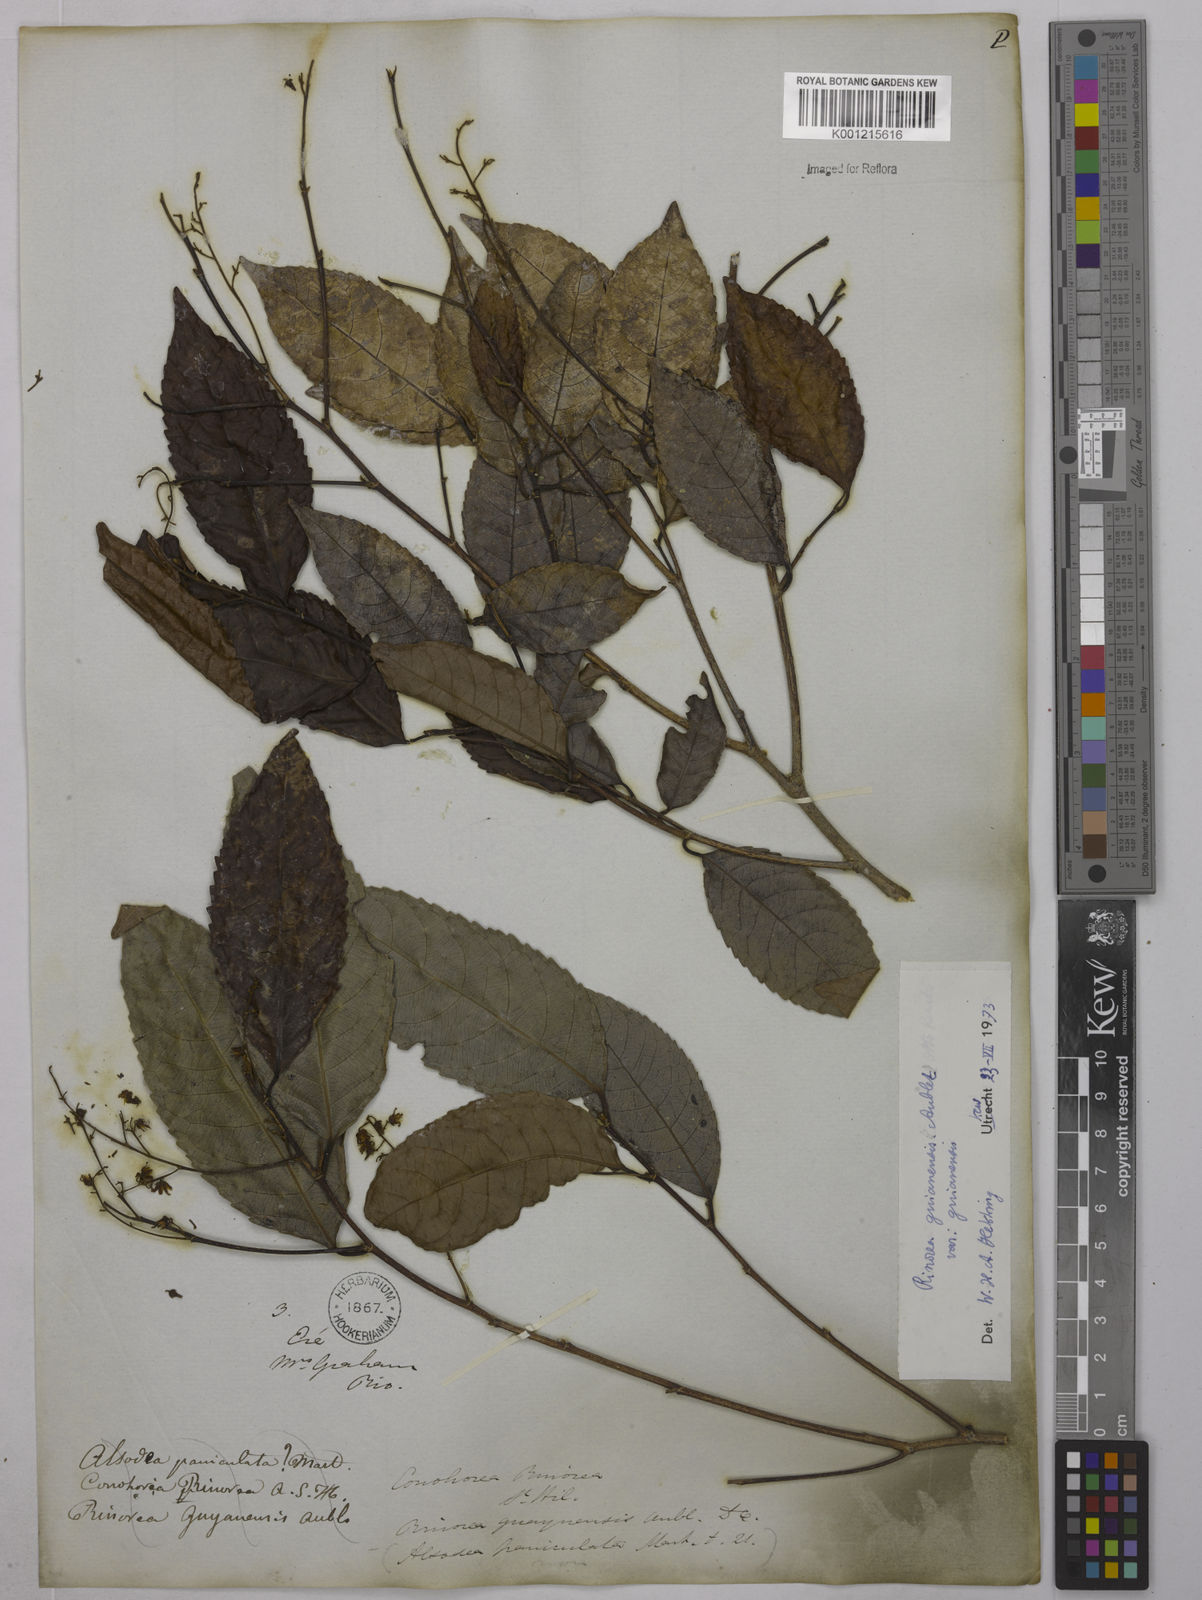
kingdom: Plantae
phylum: Tracheophyta
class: Magnoliopsida
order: Malpighiales
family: Violaceae
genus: Rinorea
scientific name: Rinorea guianensis
